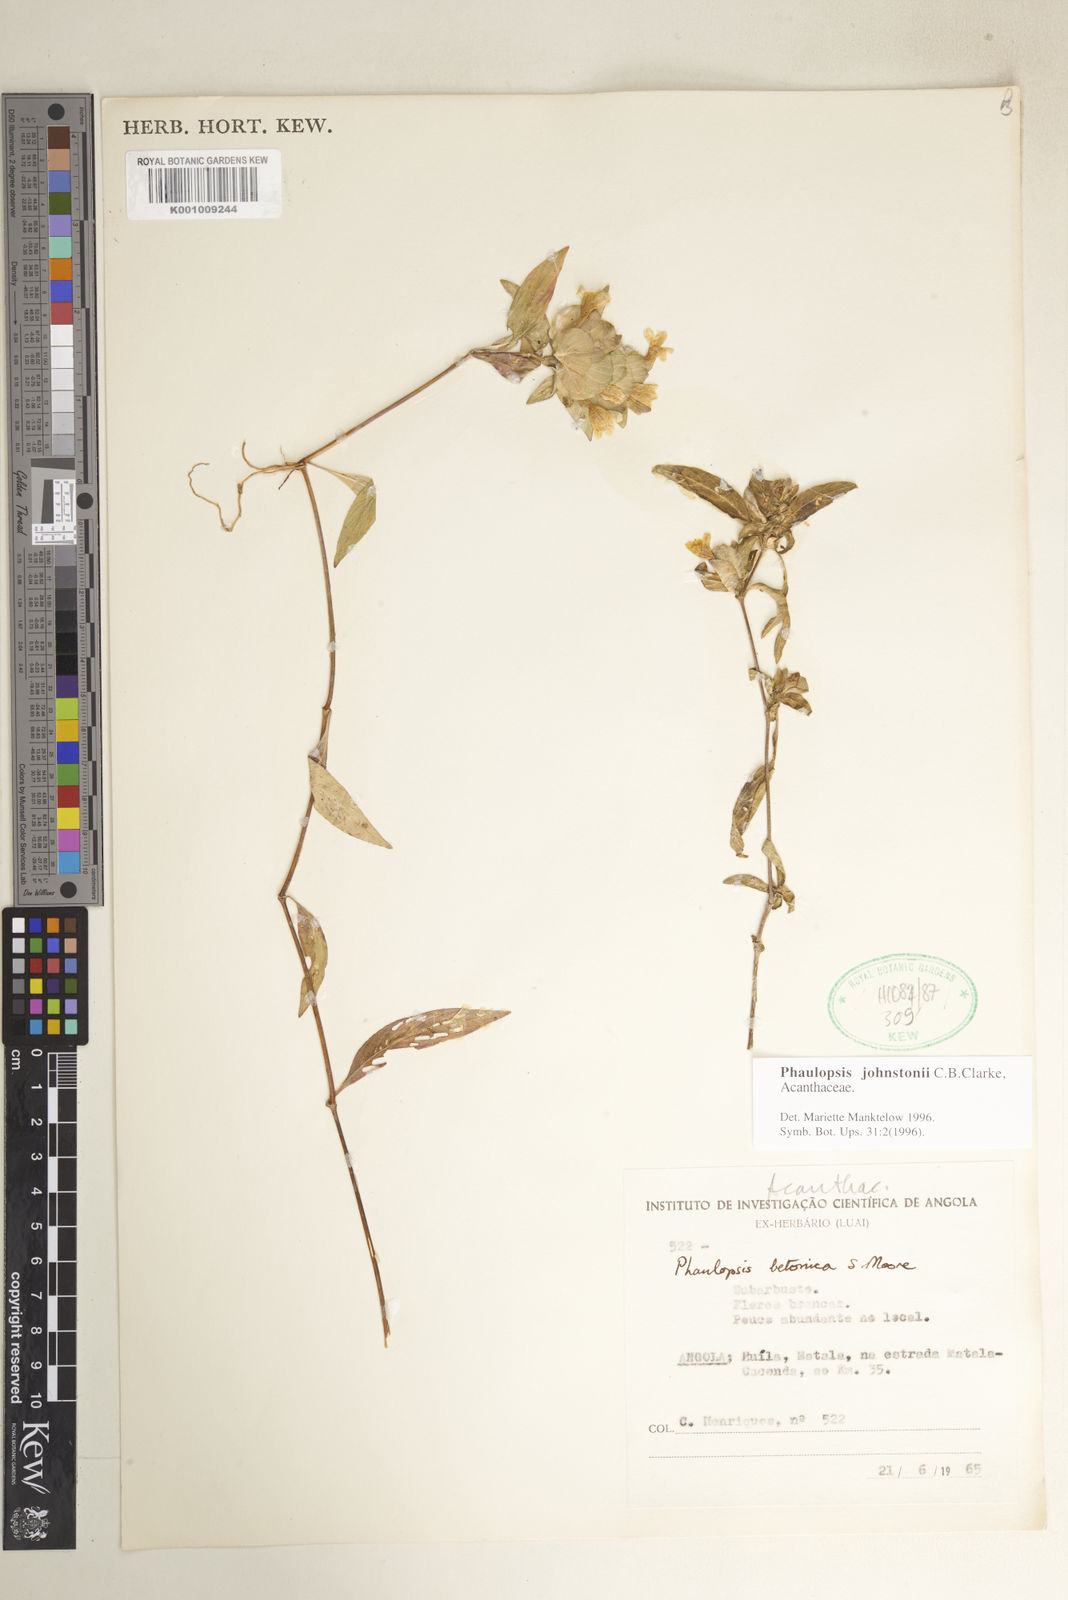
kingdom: Plantae
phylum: Tracheophyta
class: Magnoliopsida
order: Lamiales
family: Acanthaceae
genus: Phaulopsis
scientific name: Phaulopsis johnstonii
